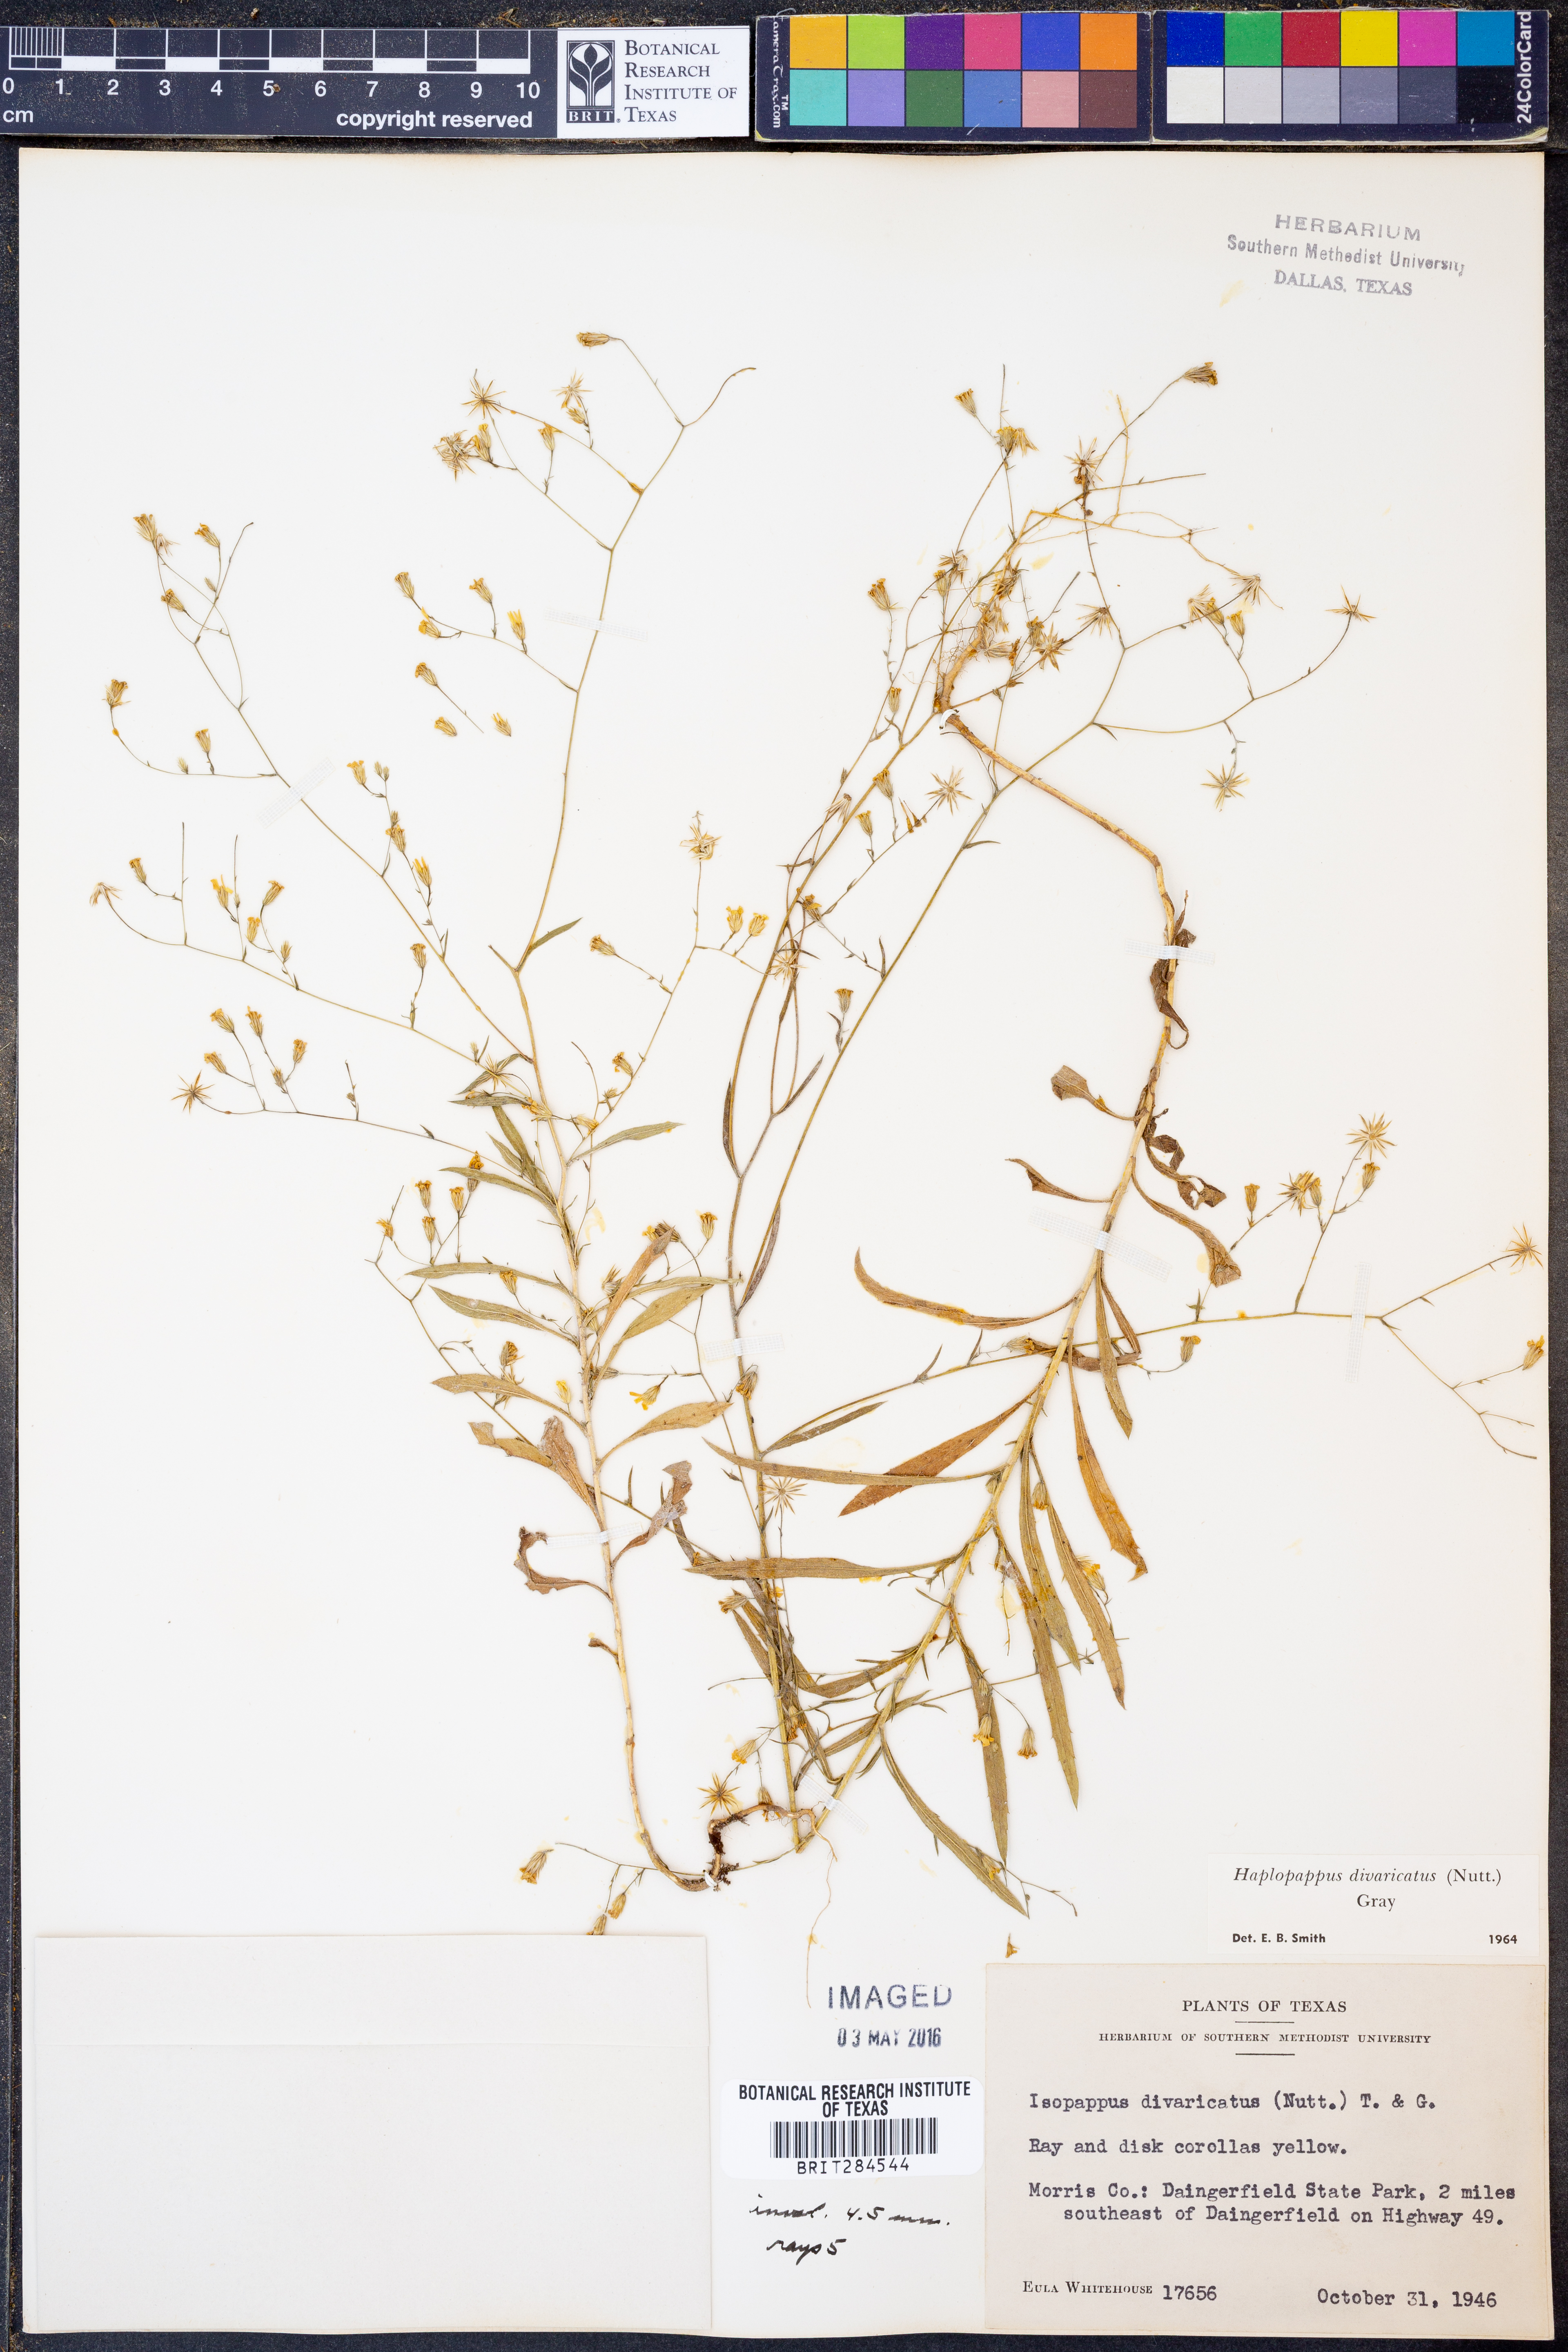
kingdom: Plantae
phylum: Tracheophyta
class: Magnoliopsida
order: Asterales
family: Asteraceae
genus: Croptilon
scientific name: Croptilon divaricatum
